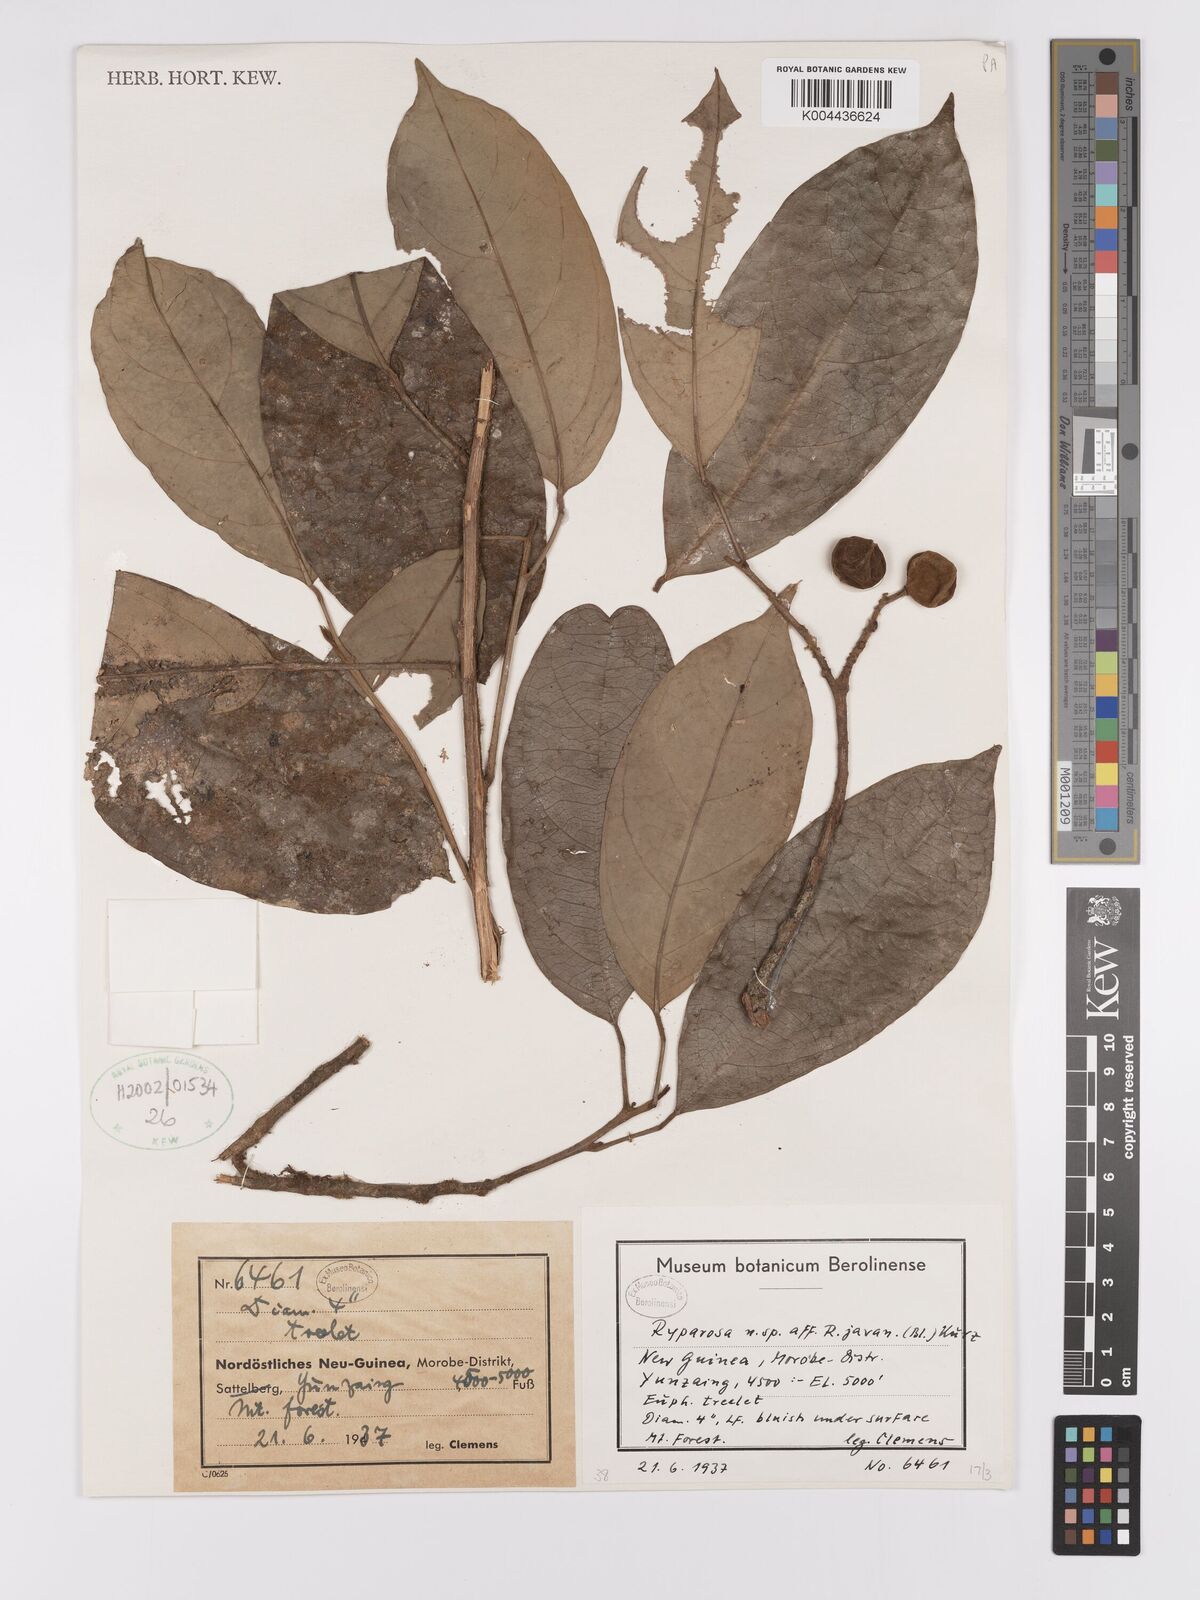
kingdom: Plantae
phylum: Tracheophyta
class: Magnoliopsida
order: Malpighiales
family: Achariaceae
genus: Ryparosa
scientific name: Ryparosa javanica
